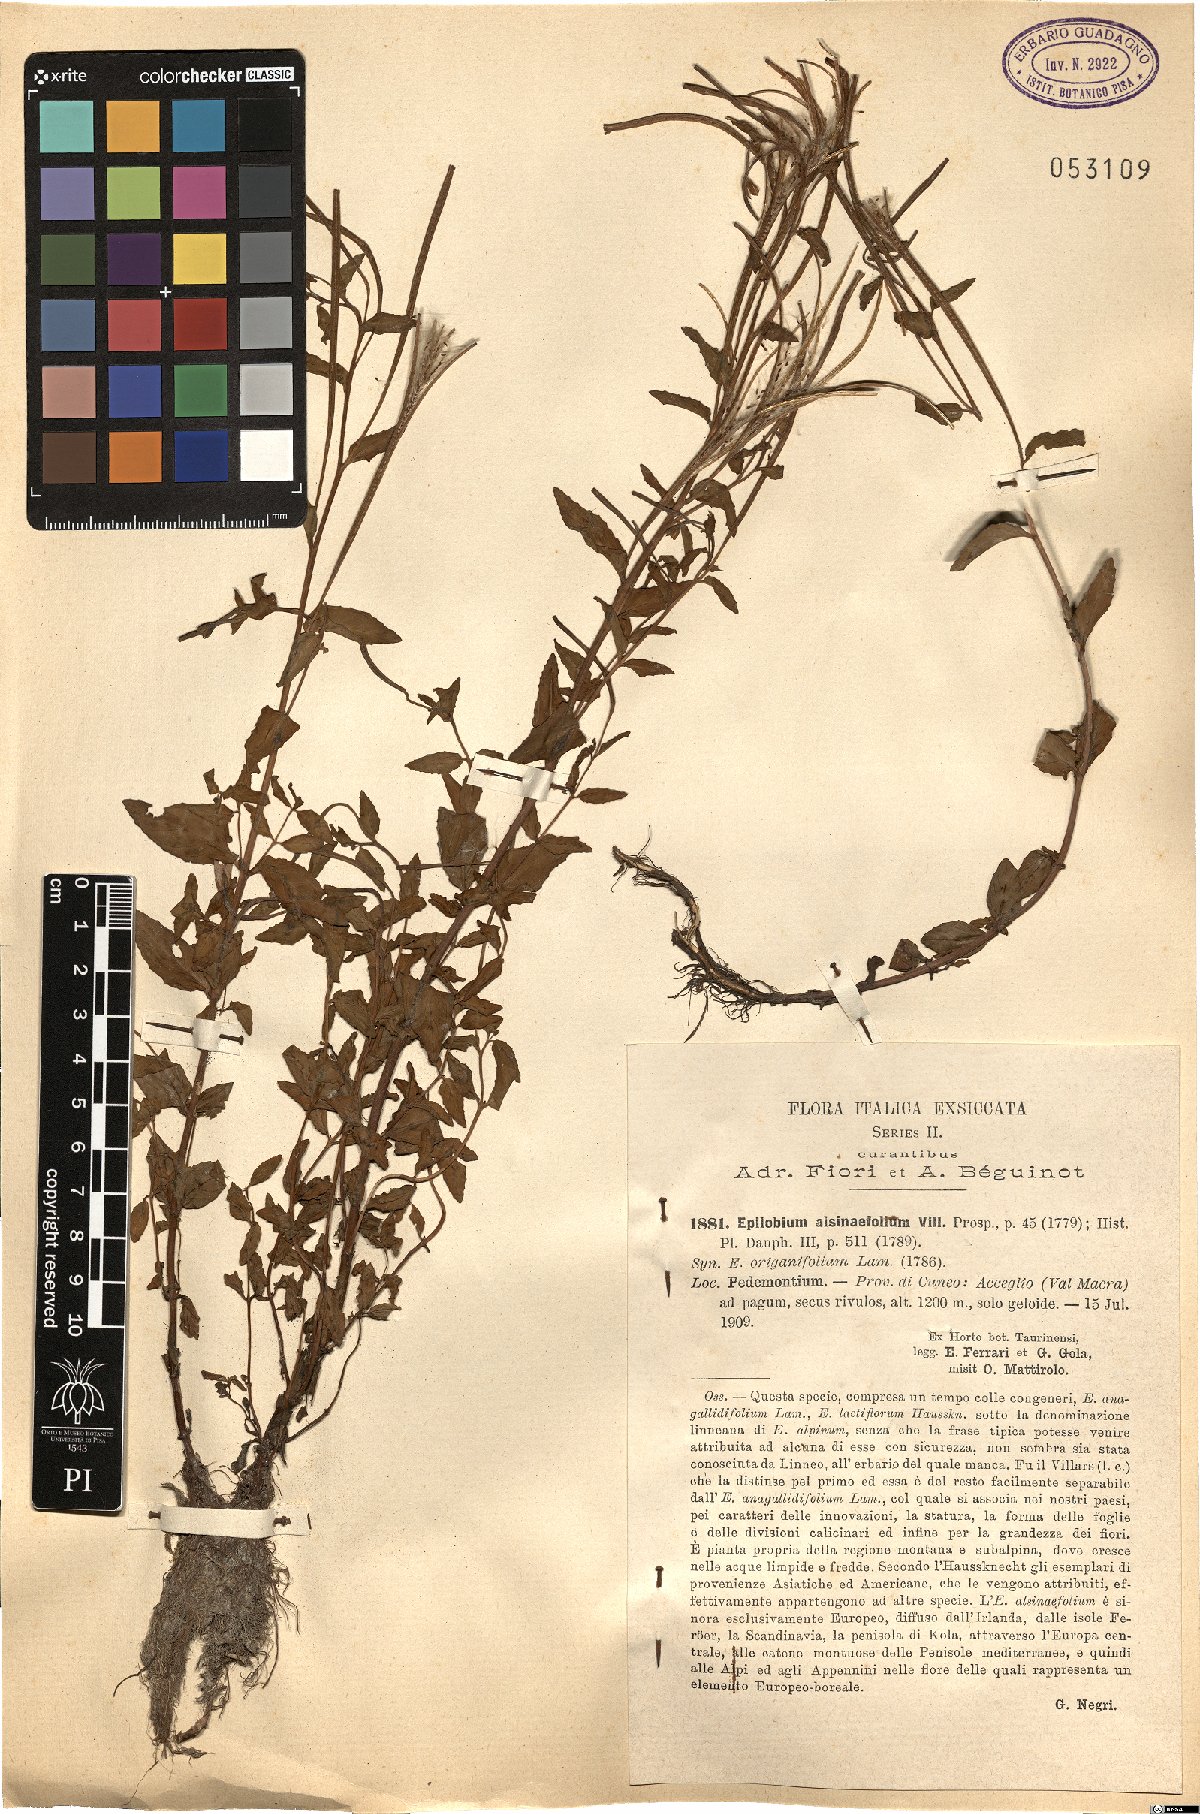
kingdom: Plantae
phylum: Tracheophyta
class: Magnoliopsida
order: Myrtales
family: Onagraceae
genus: Epilobium
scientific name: Epilobium alsinifolium
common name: Chickweed willowherb
